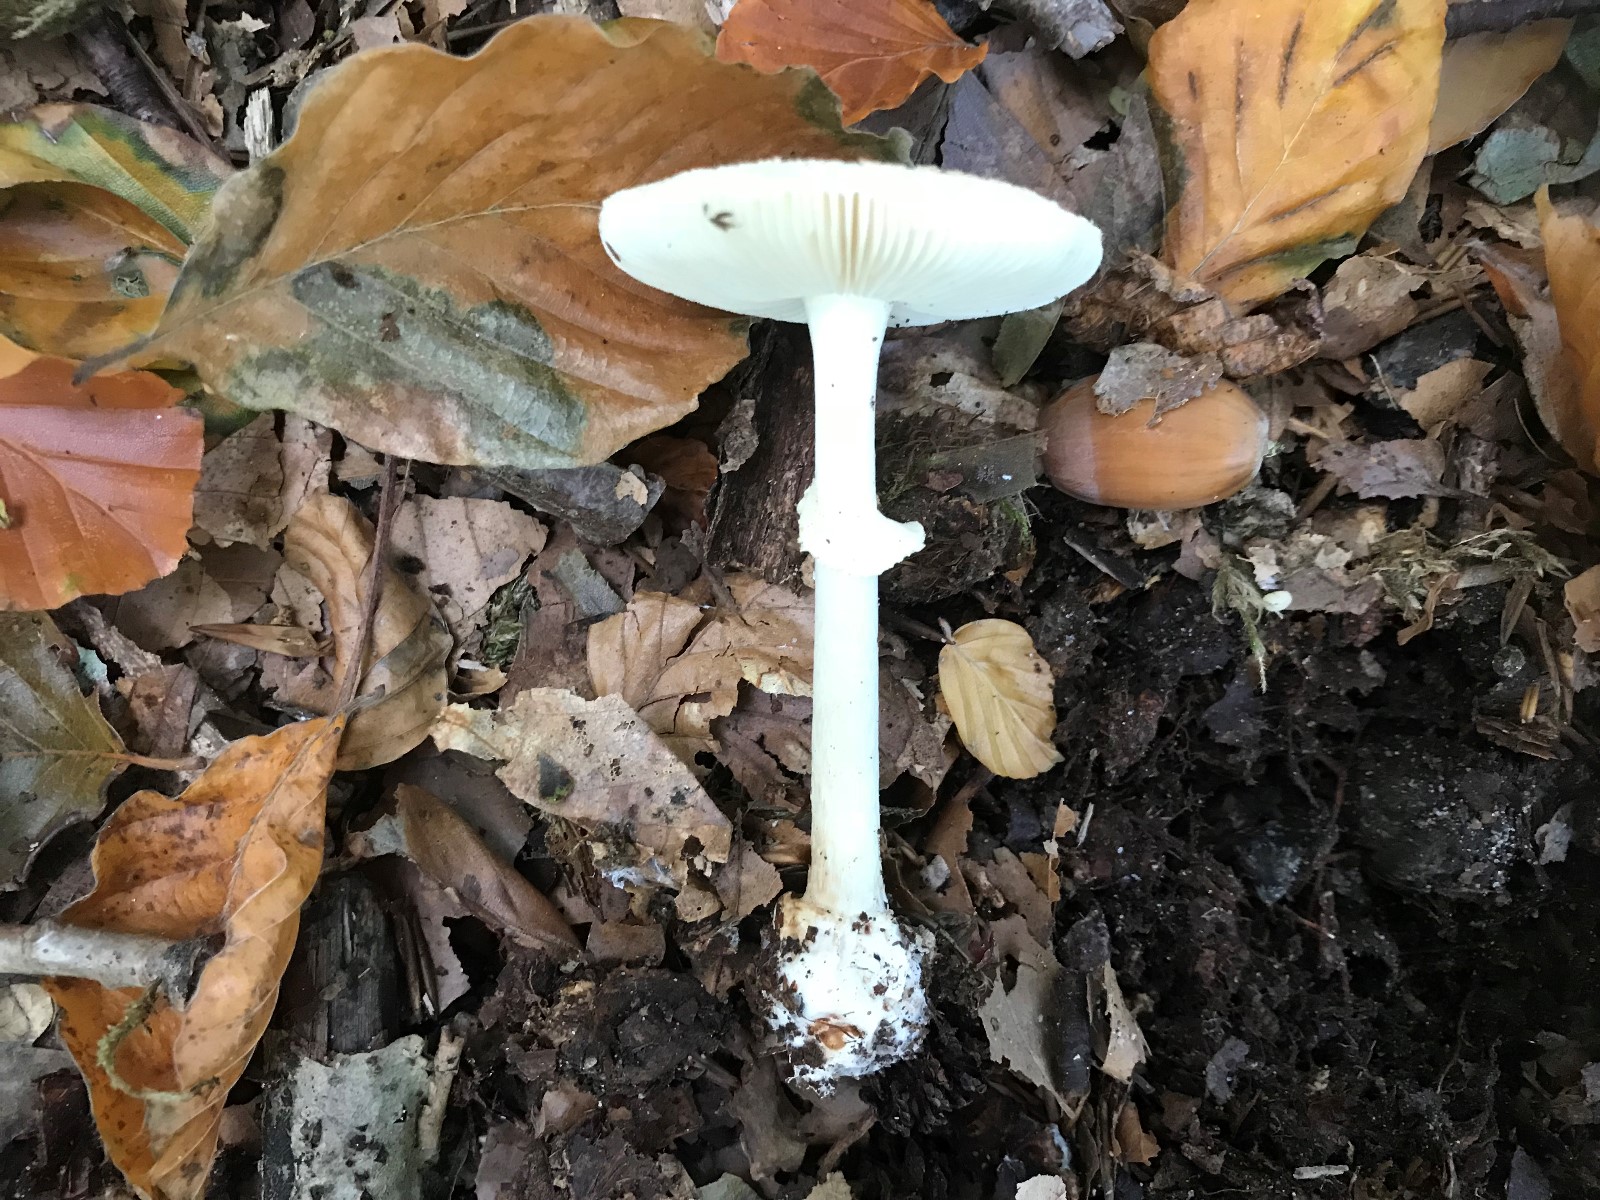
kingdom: Fungi
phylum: Basidiomycota
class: Agaricomycetes
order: Agaricales
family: Amanitaceae
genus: Amanita
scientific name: Amanita citrina
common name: kugleknoldet fluesvamp
